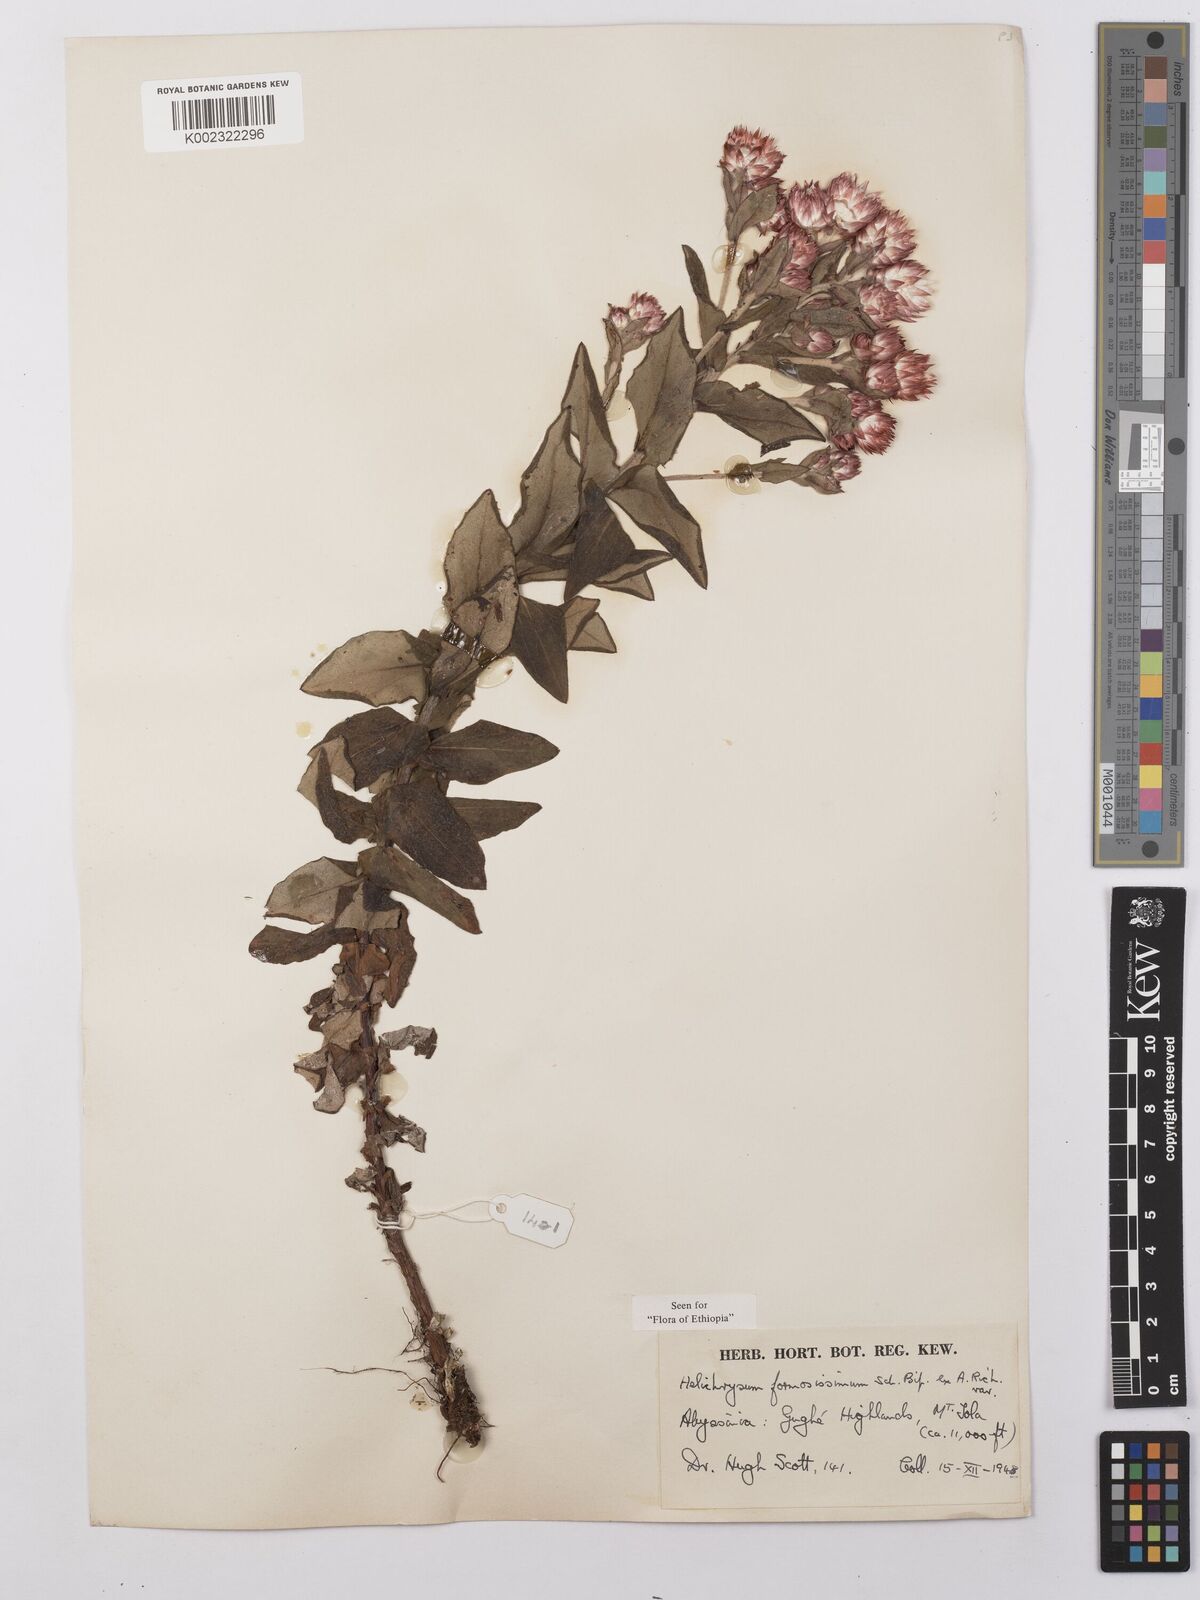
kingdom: Plantae
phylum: Tracheophyta
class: Magnoliopsida
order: Asterales
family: Asteraceae
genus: Helichrysum
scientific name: Helichrysum formosissimum
